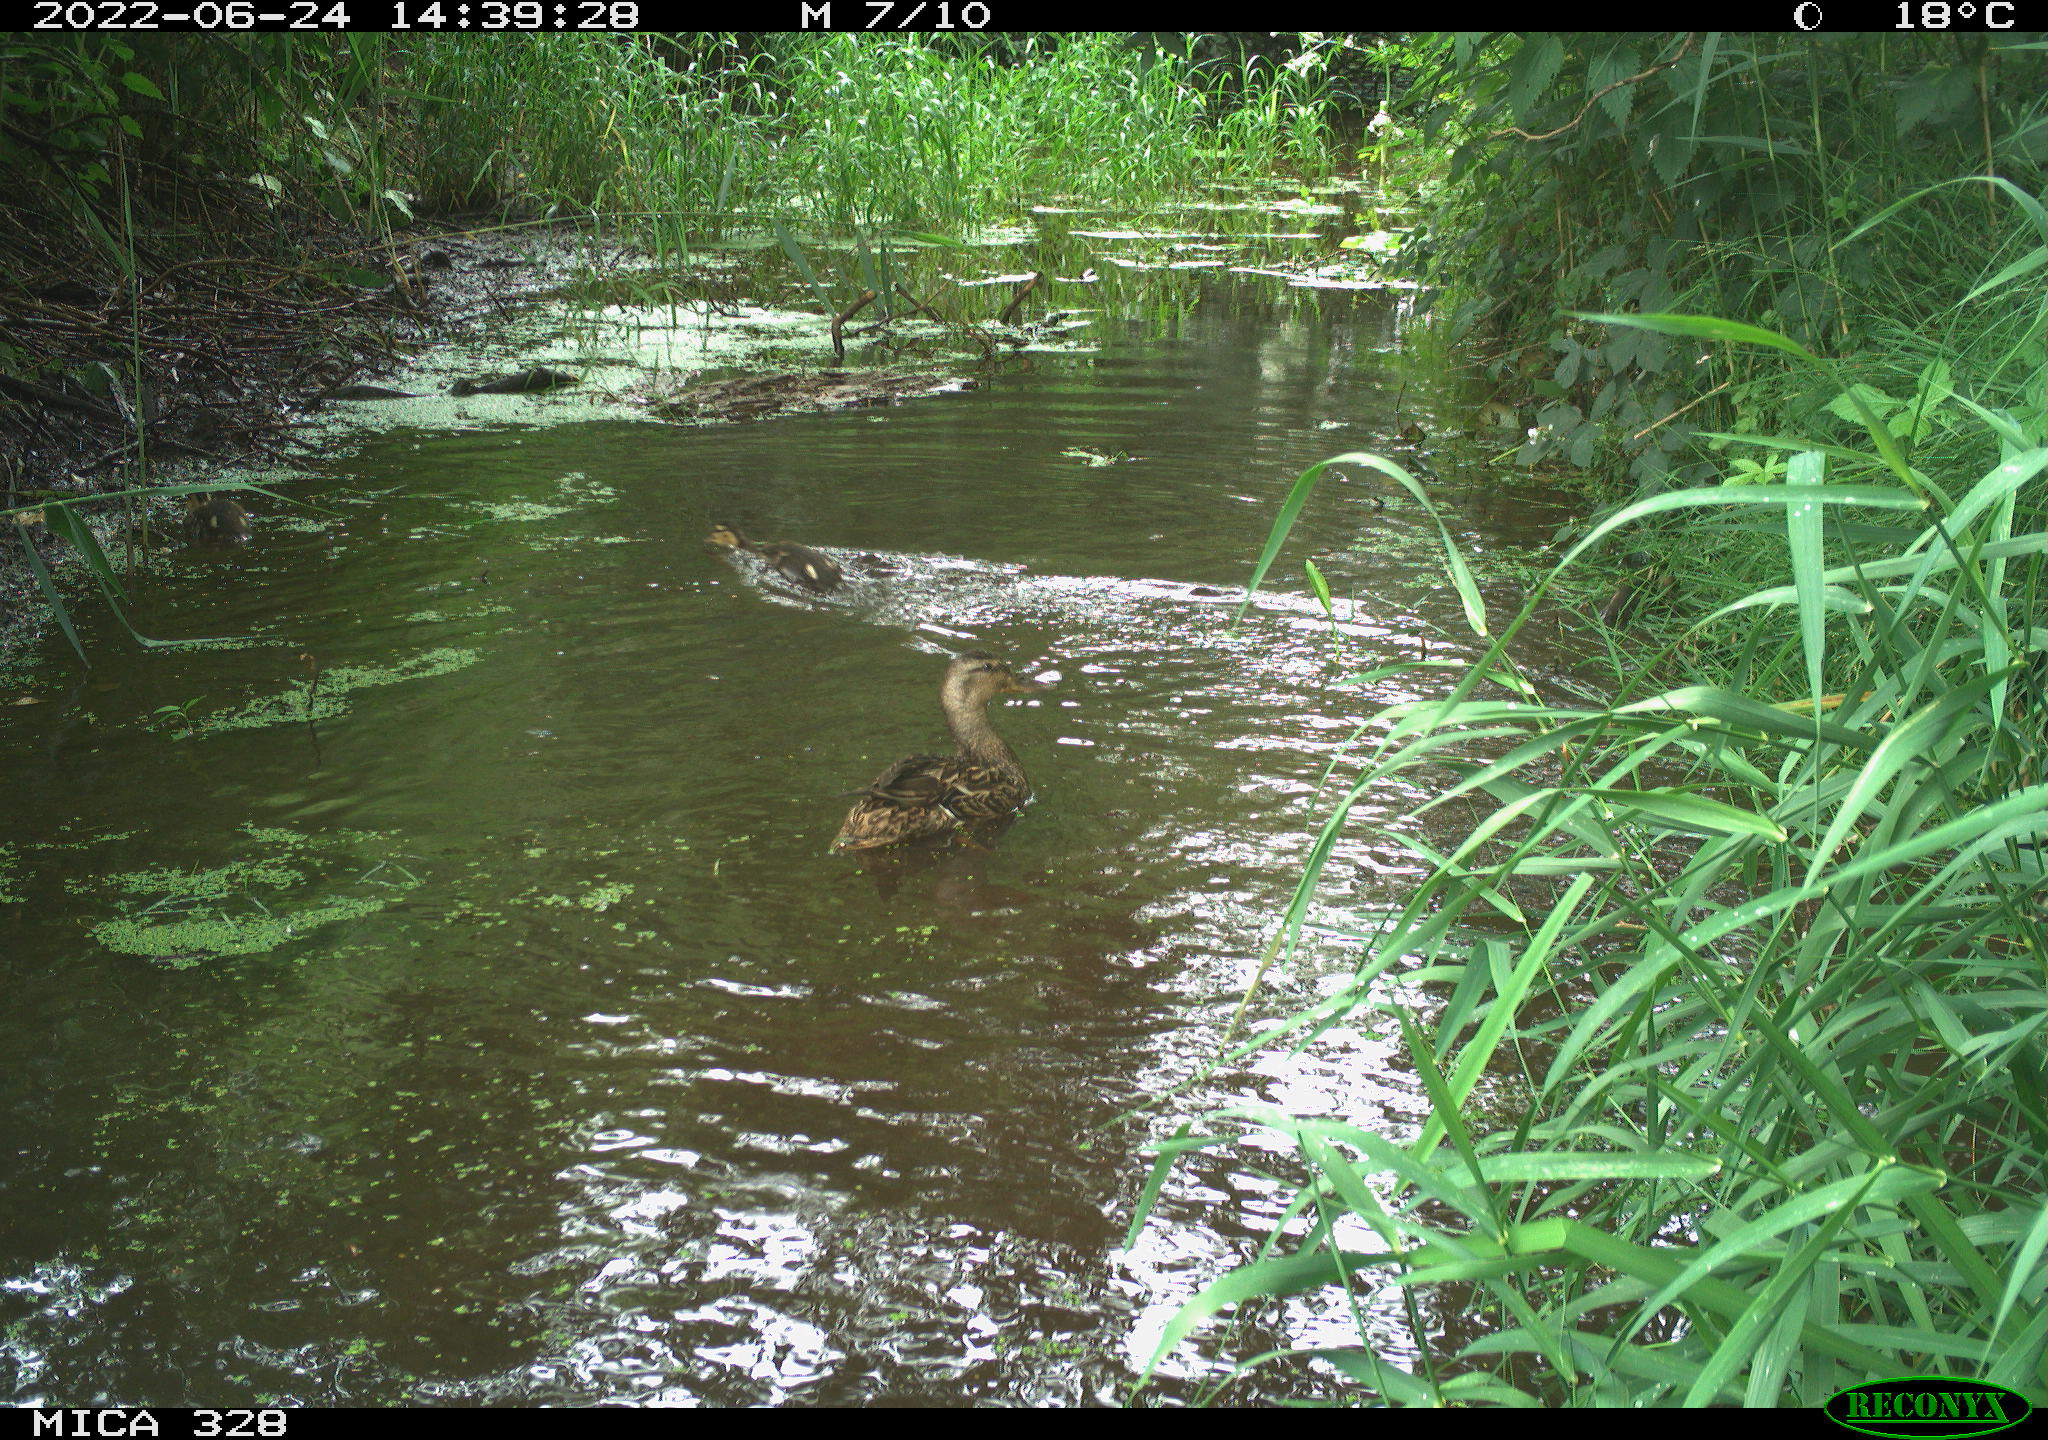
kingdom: Animalia
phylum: Chordata
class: Aves
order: Anseriformes
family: Anatidae
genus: Anas
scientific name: Anas platyrhynchos
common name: Mallard
